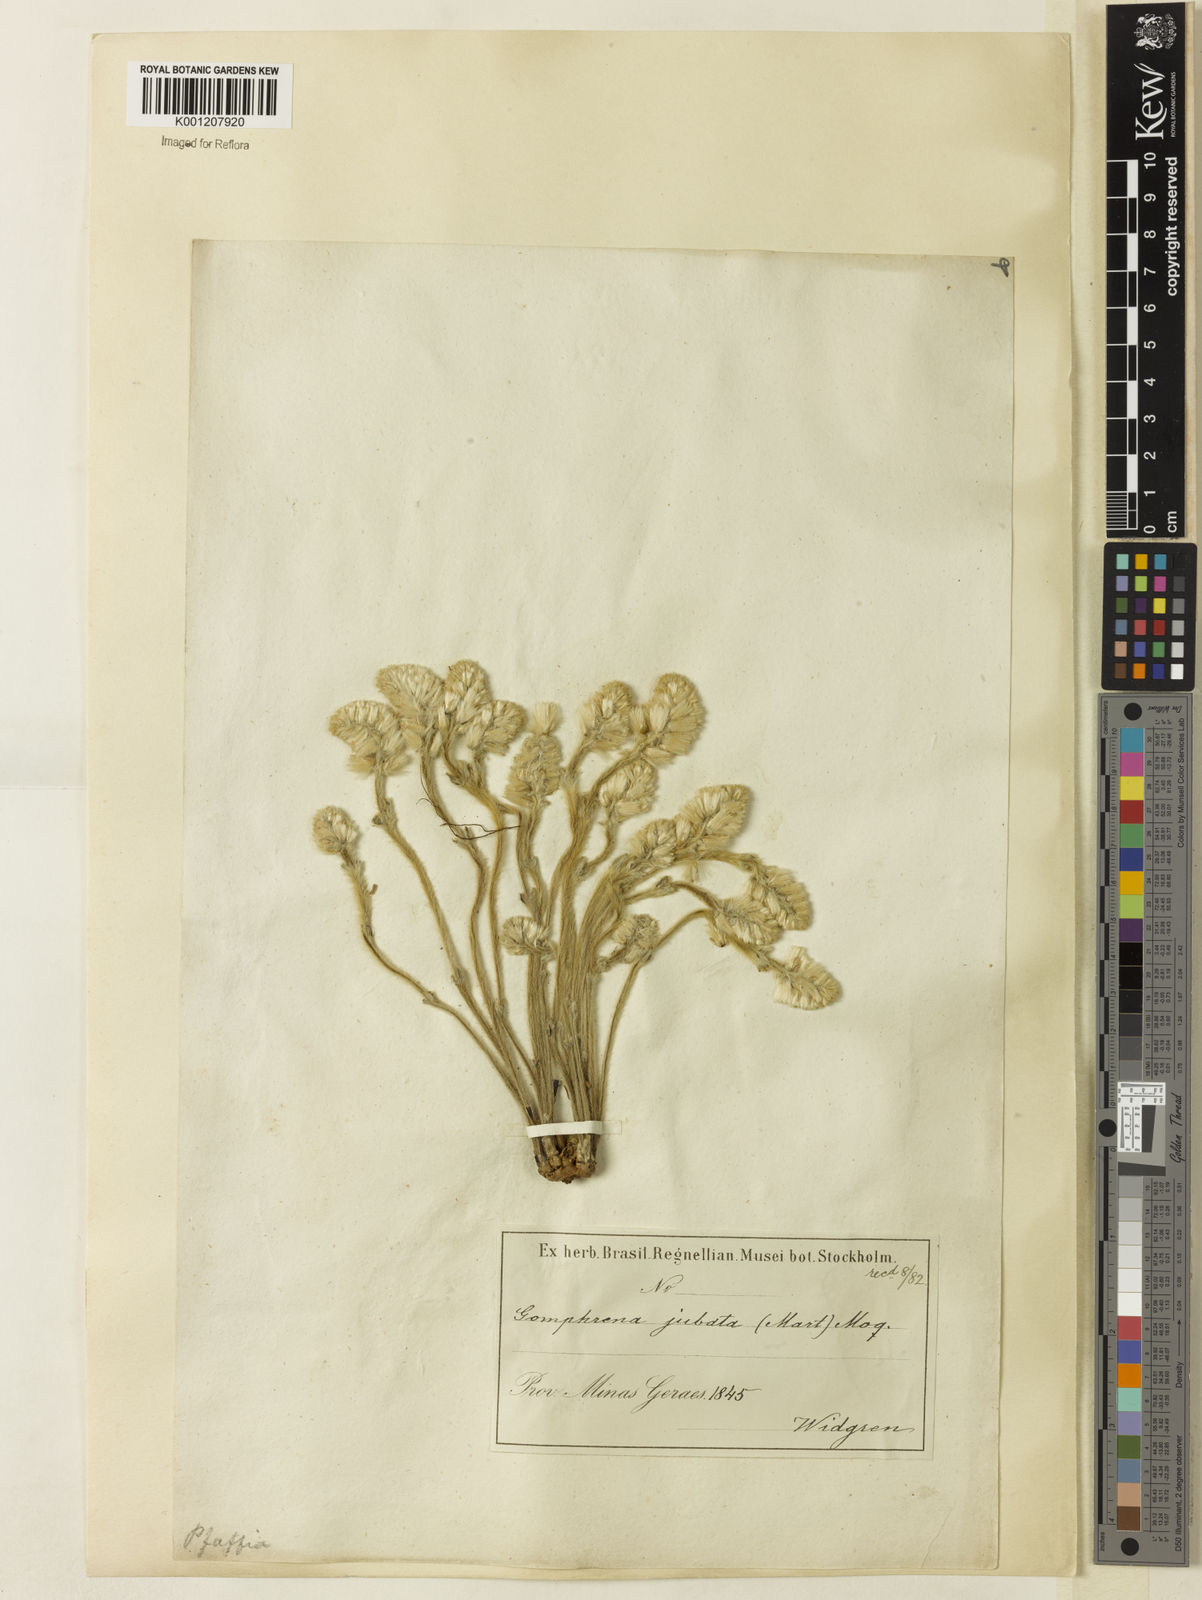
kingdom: Plantae
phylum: Tracheophyta
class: Magnoliopsida
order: Caryophyllales
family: Amaranthaceae
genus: Pfaffia
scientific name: Pfaffia jubata
